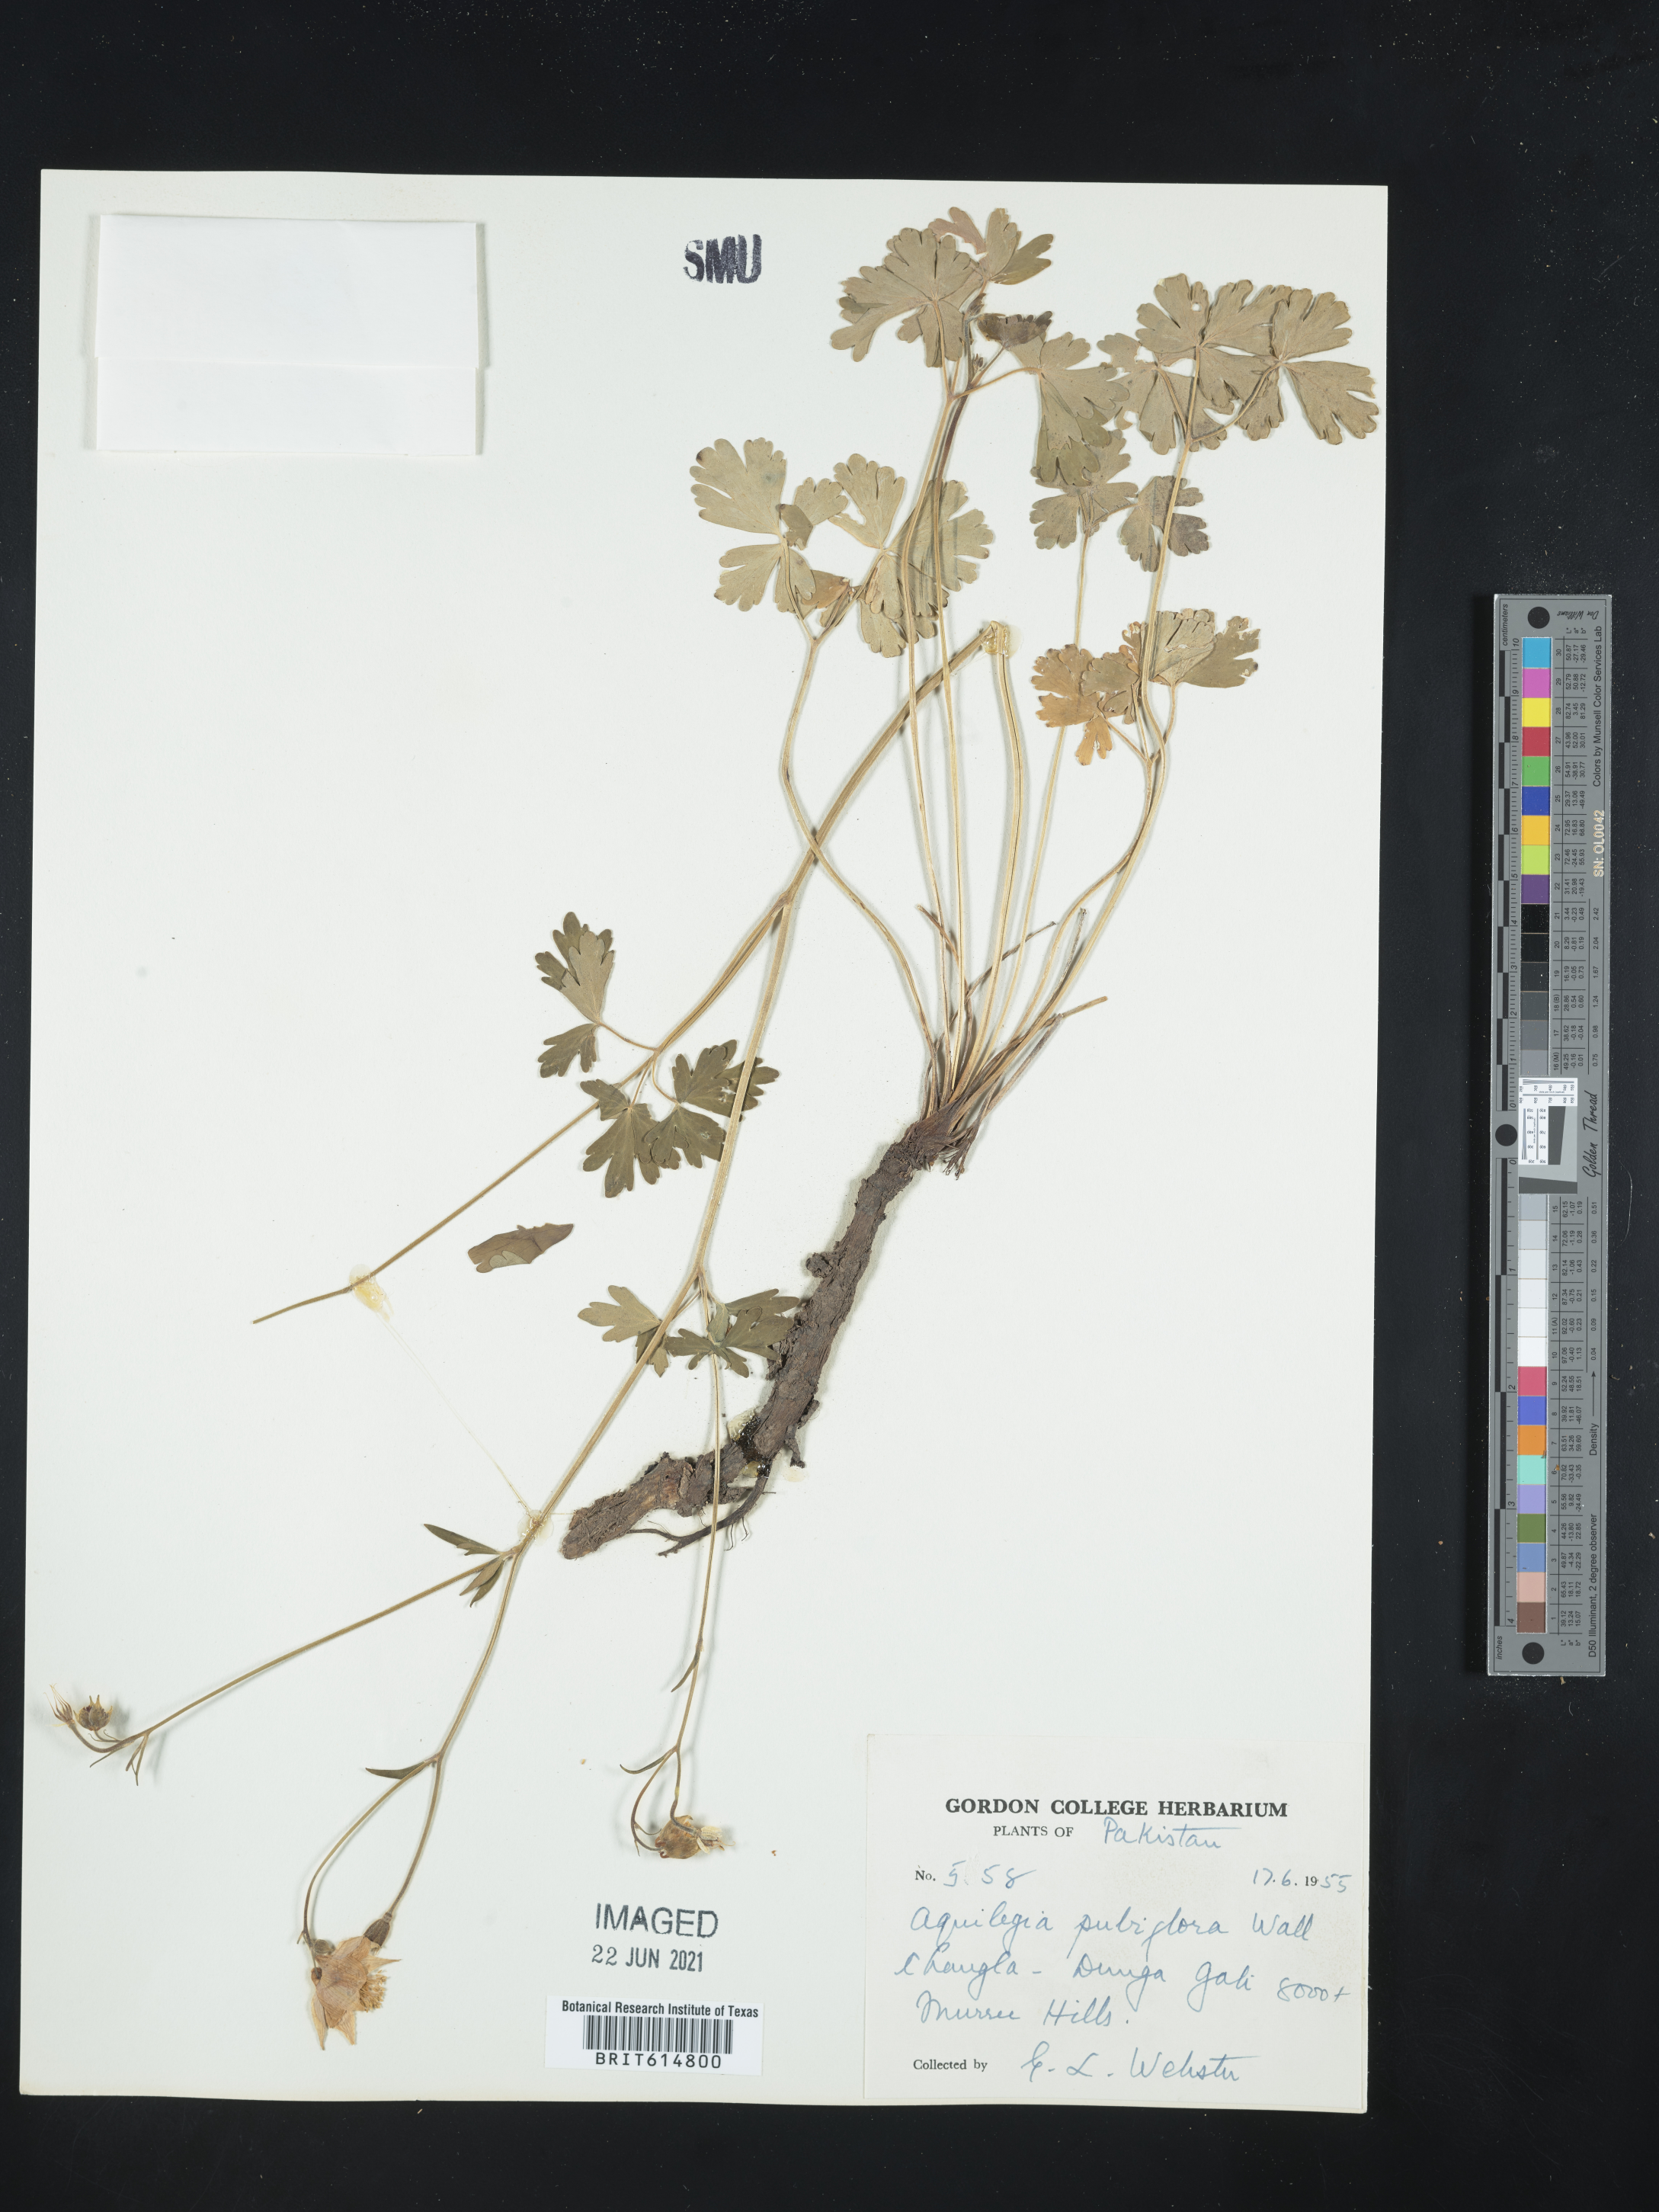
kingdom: Plantae
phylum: Tracheophyta
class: Magnoliopsida
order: Ranunculales
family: Ranunculaceae
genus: Aquilegia
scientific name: Aquilegia pubiflora
